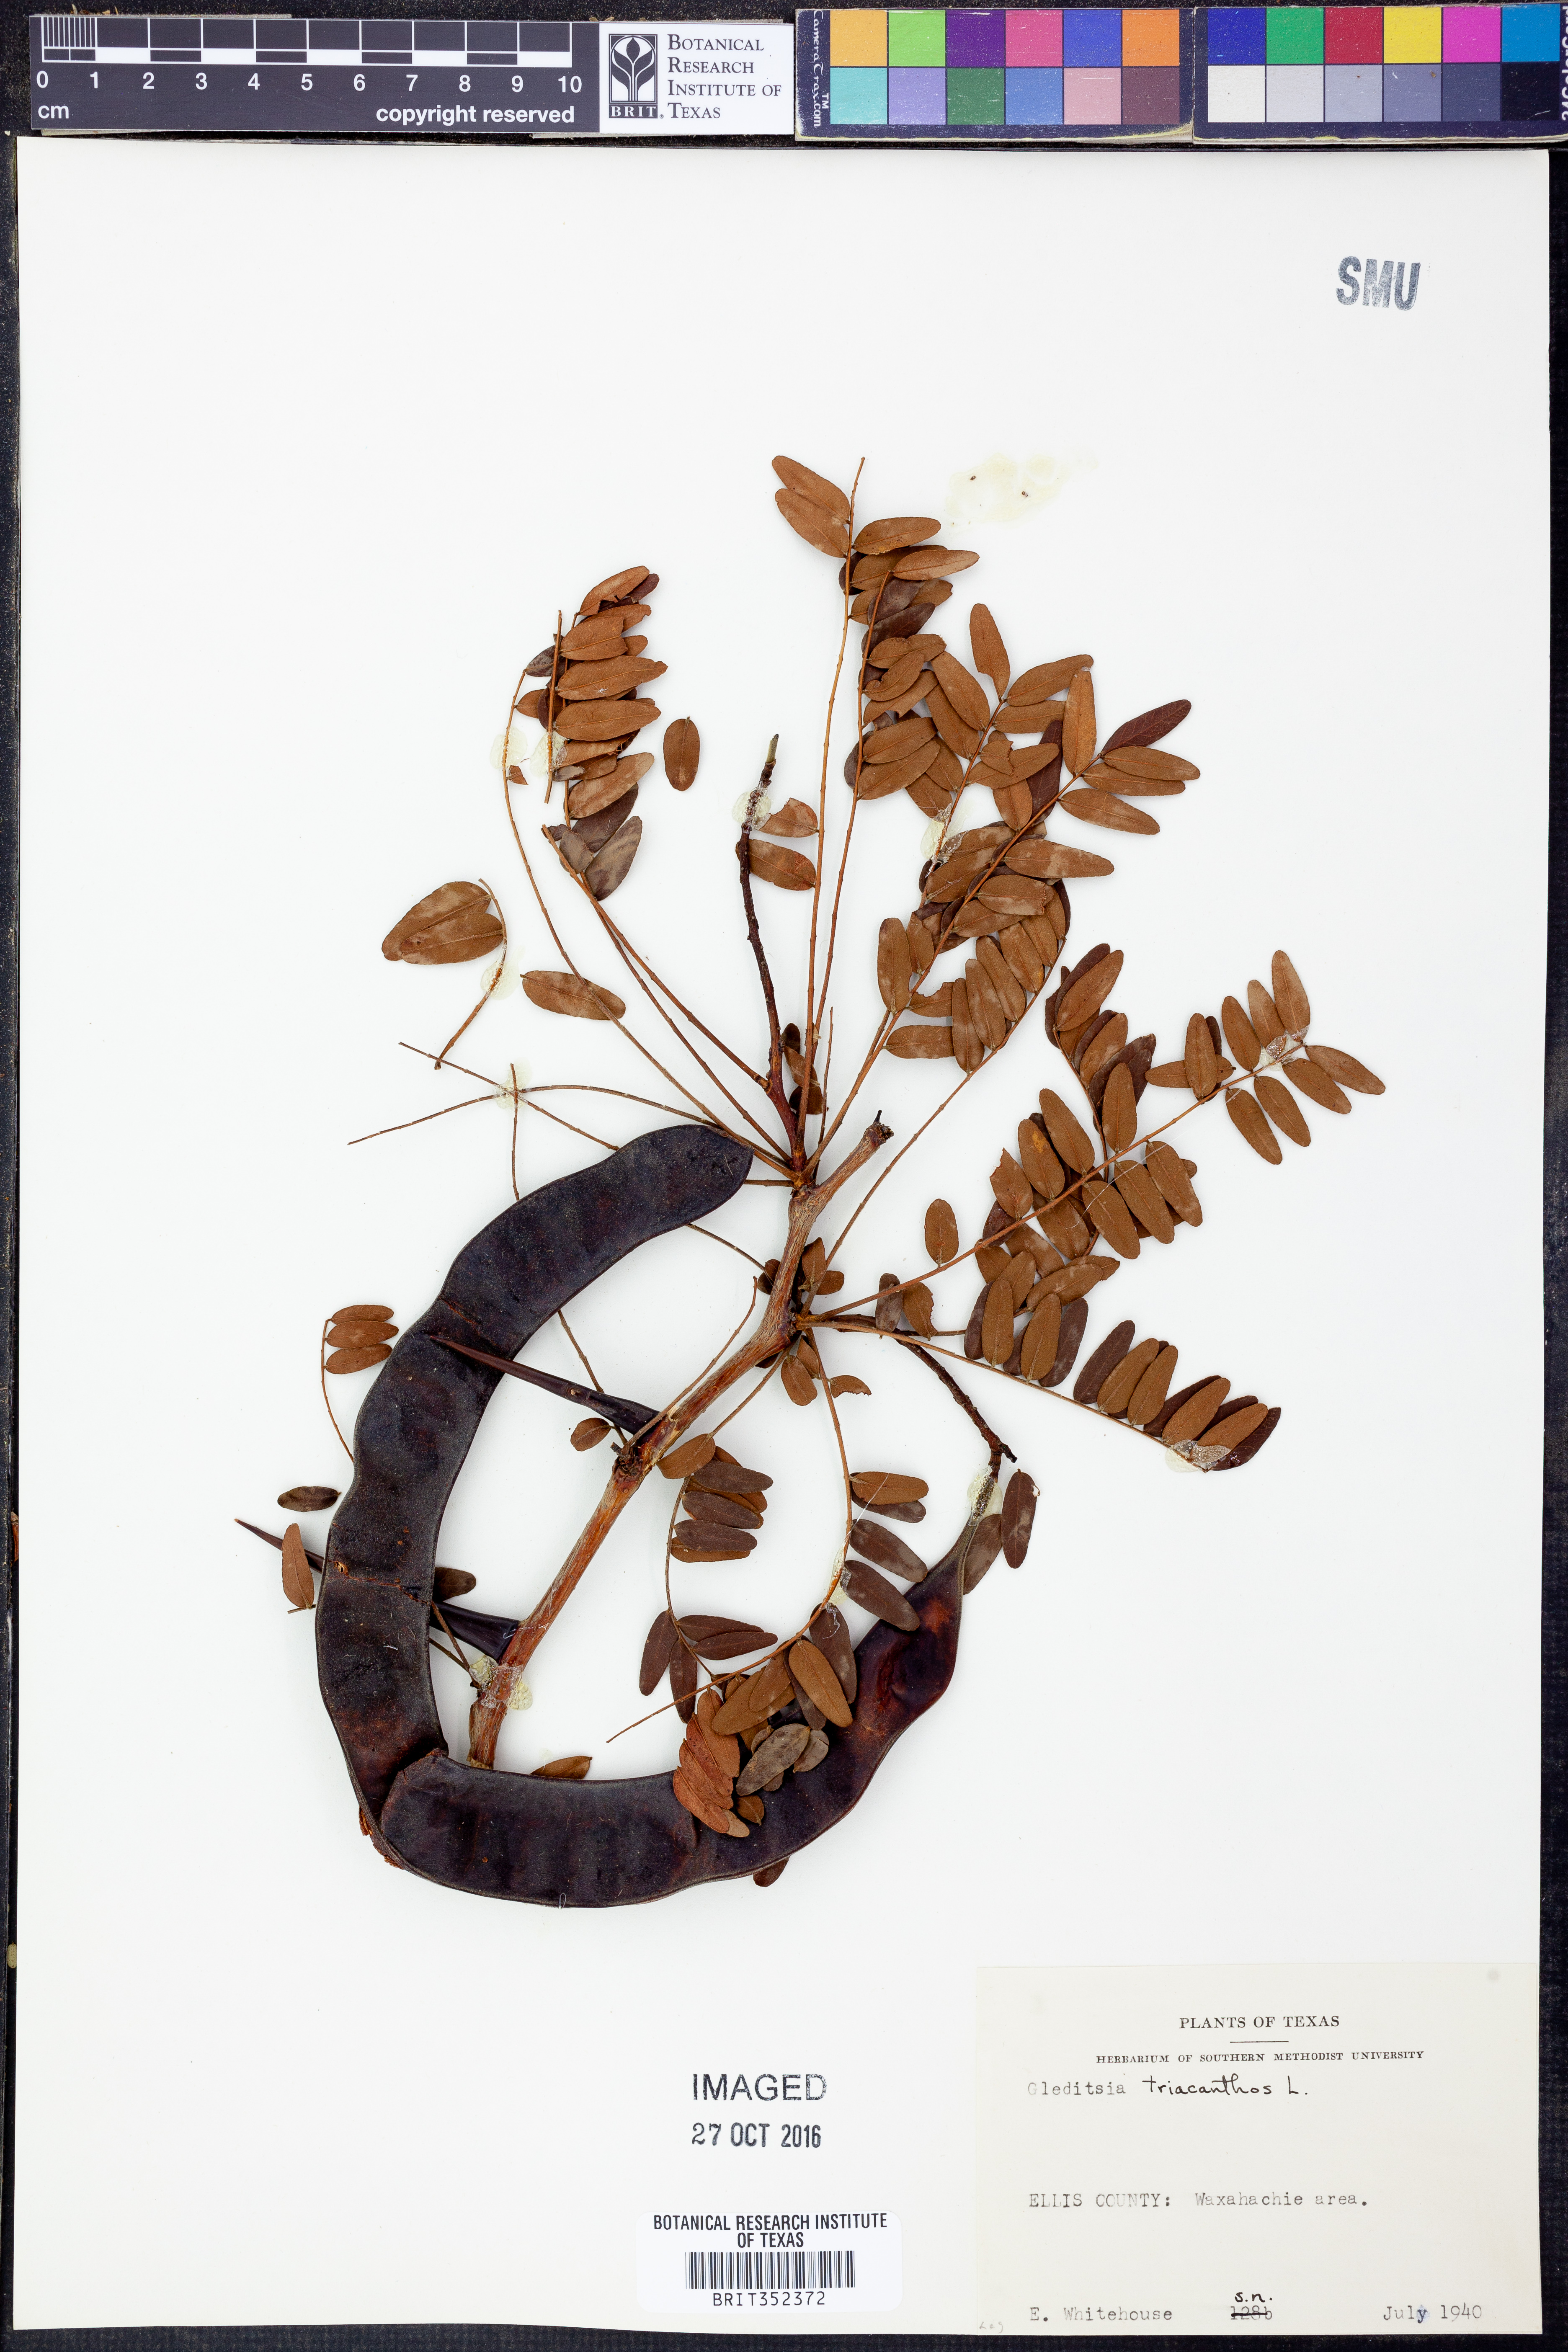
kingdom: Plantae
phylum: Tracheophyta
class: Magnoliopsida
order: Fabales
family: Fabaceae
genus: Gleditsia
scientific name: Gleditsia triacanthos
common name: Common honeylocust
